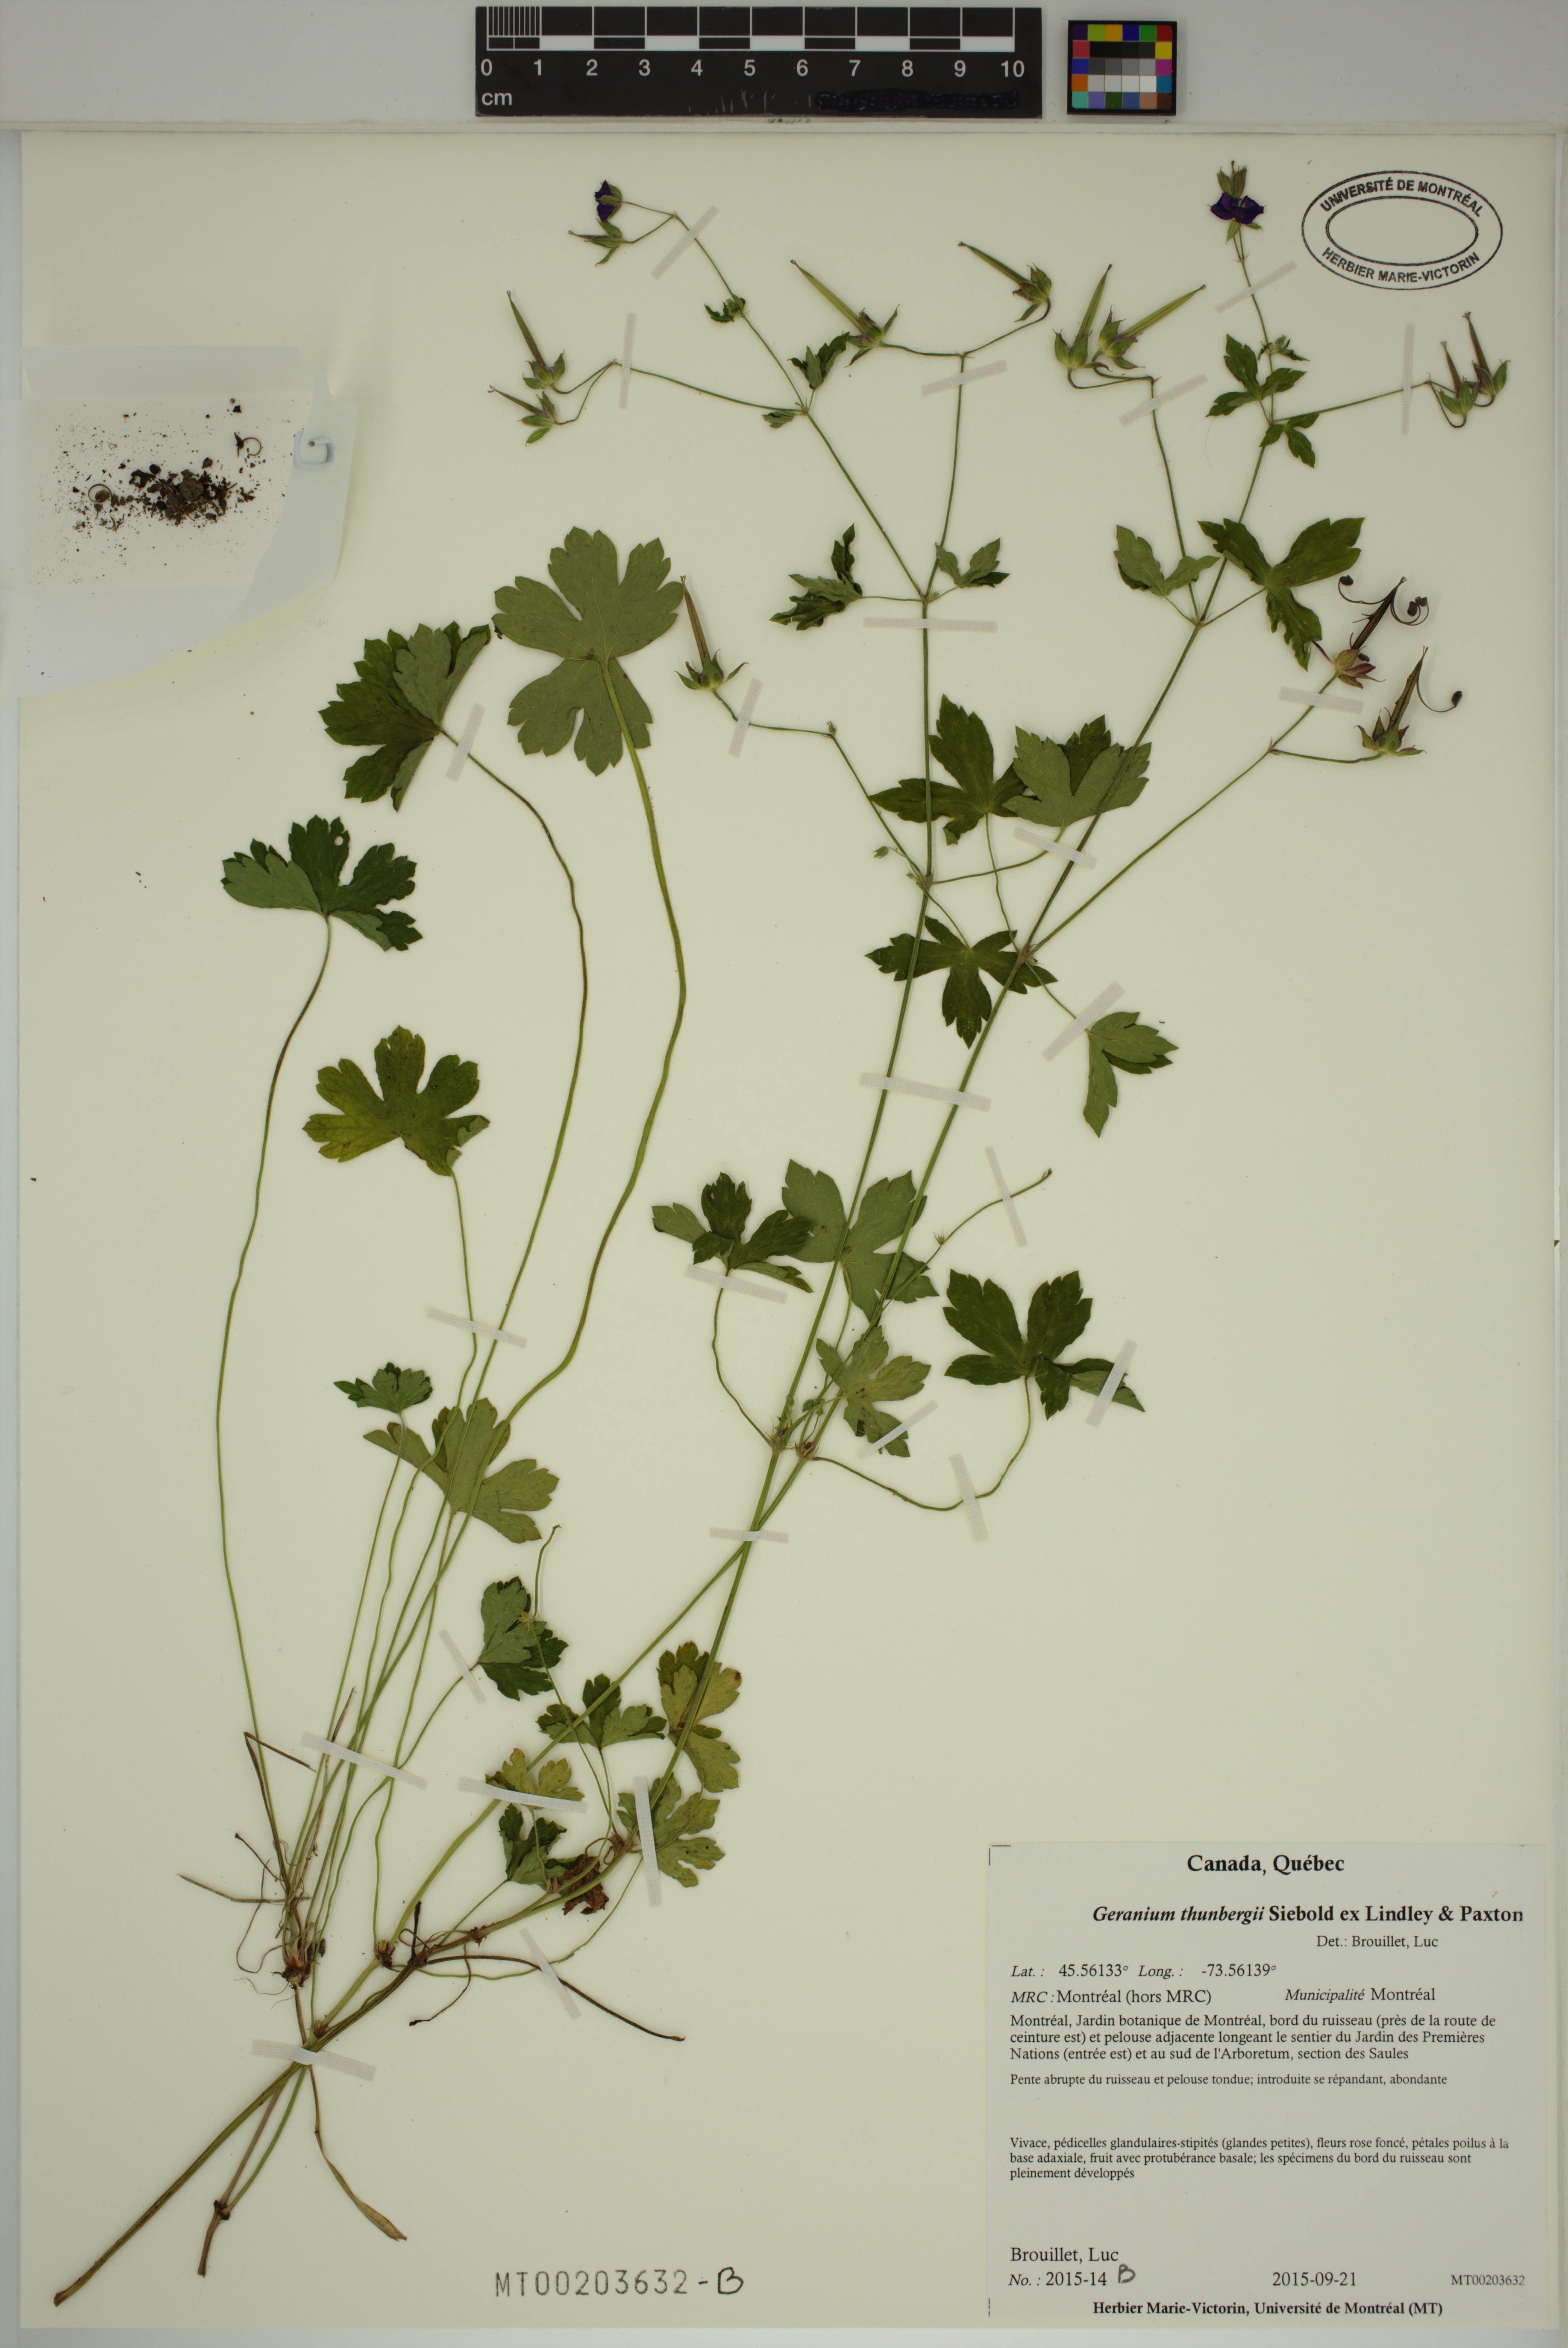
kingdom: Plantae
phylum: Tracheophyta
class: Magnoliopsida
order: Geraniales
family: Geraniaceae
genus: Geranium
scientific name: Geranium thunbergii
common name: Dewdrop crane's-bill
